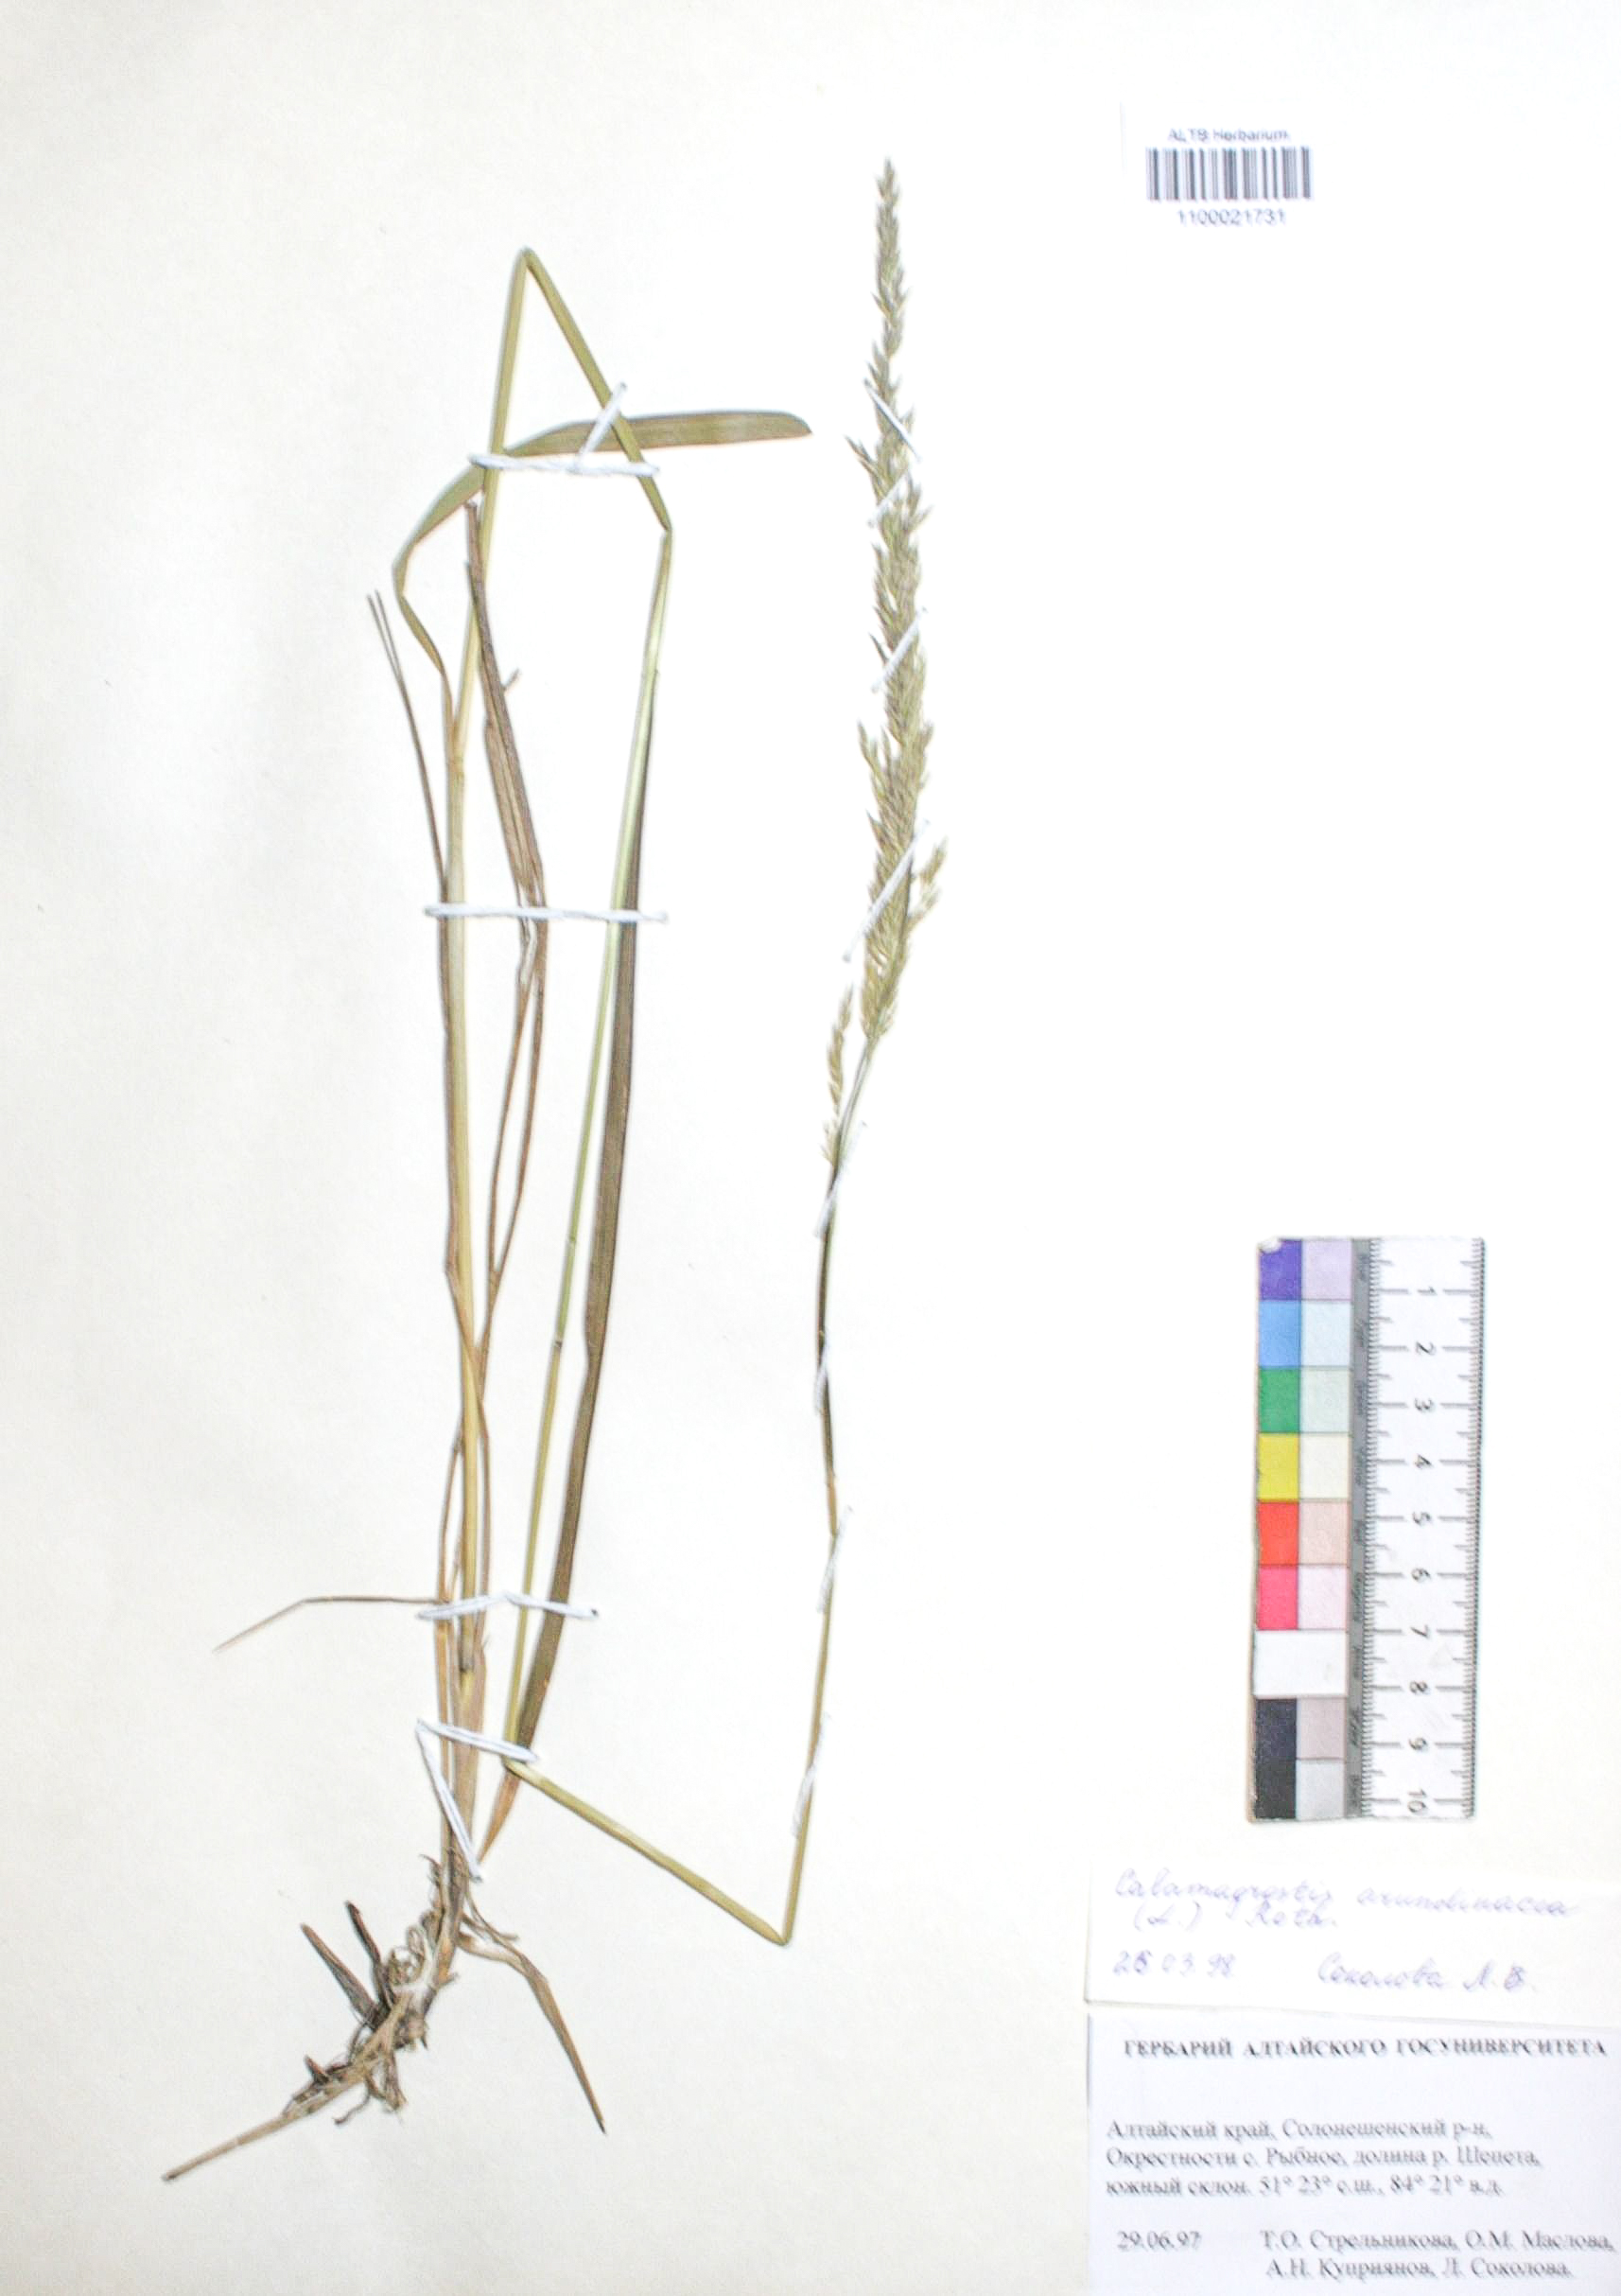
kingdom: Plantae
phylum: Tracheophyta
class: Liliopsida
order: Poales
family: Poaceae
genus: Calamagrostis
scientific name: Calamagrostis arundinacea
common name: Metskastik
